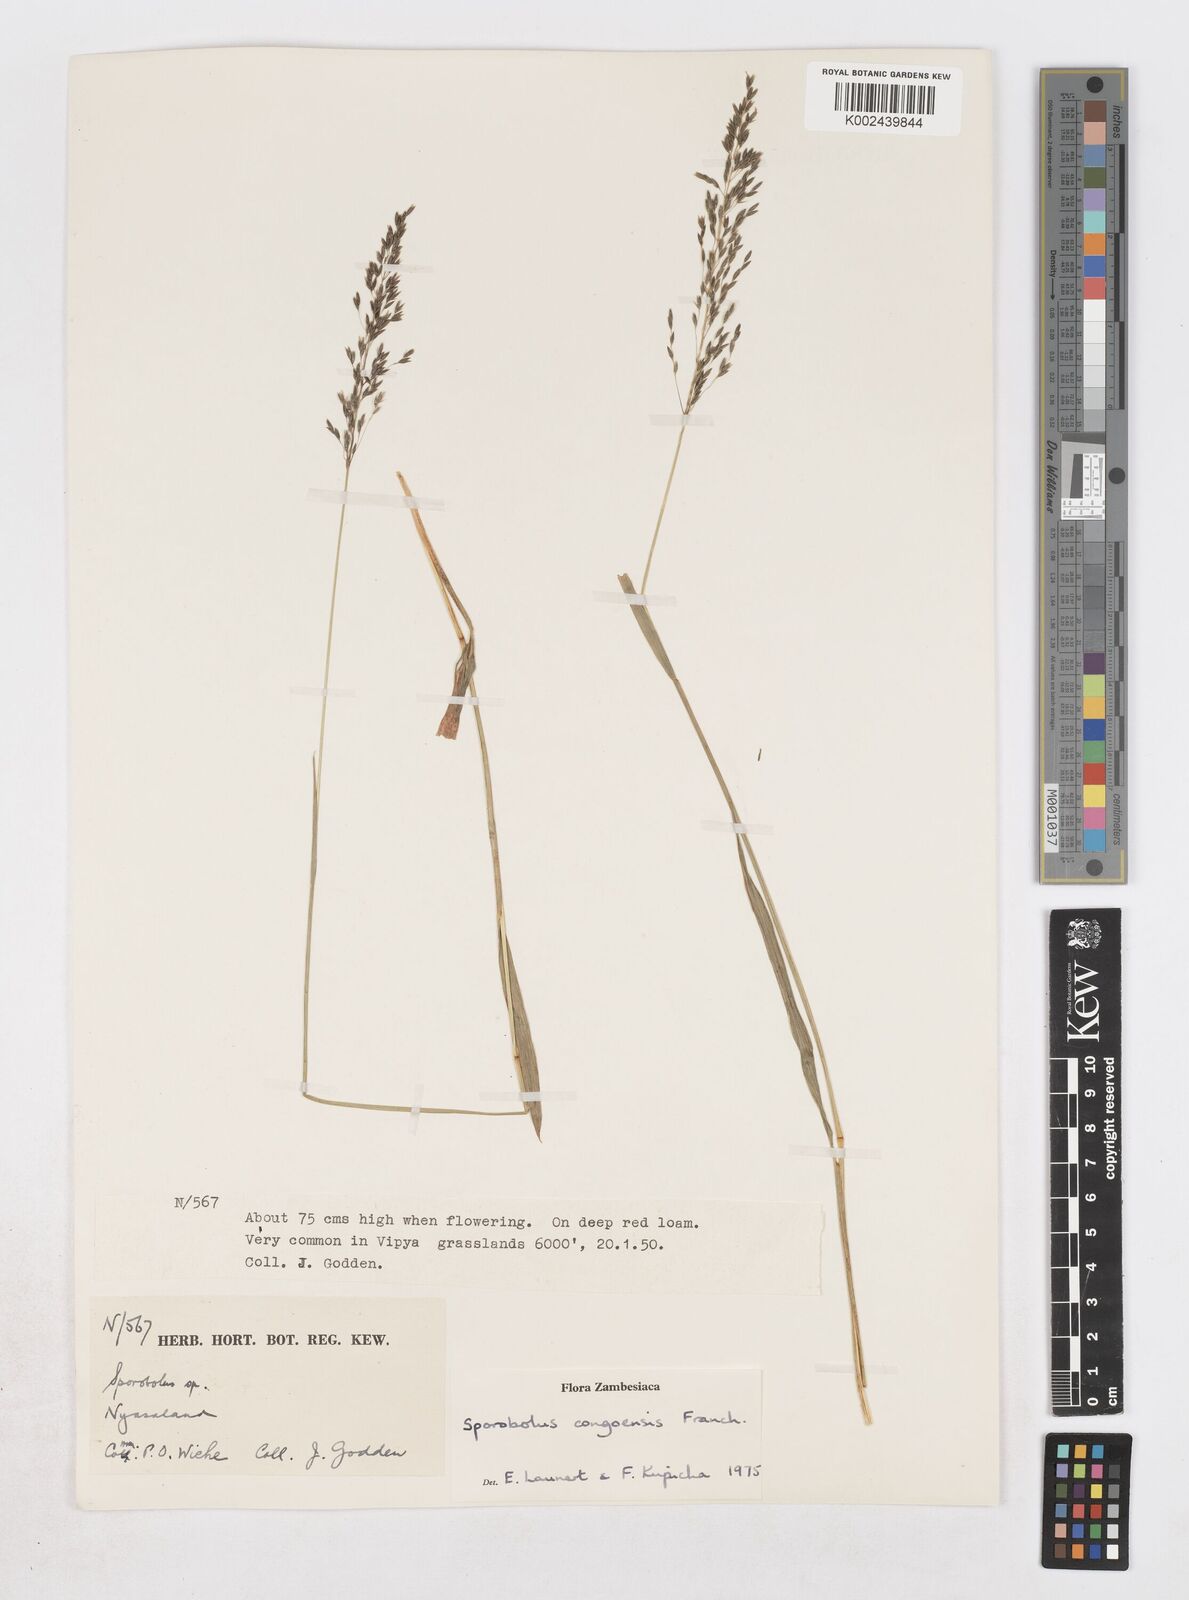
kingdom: Plantae
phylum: Tracheophyta
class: Liliopsida
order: Poales
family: Poaceae
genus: Sporobolus
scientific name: Sporobolus congoensis
